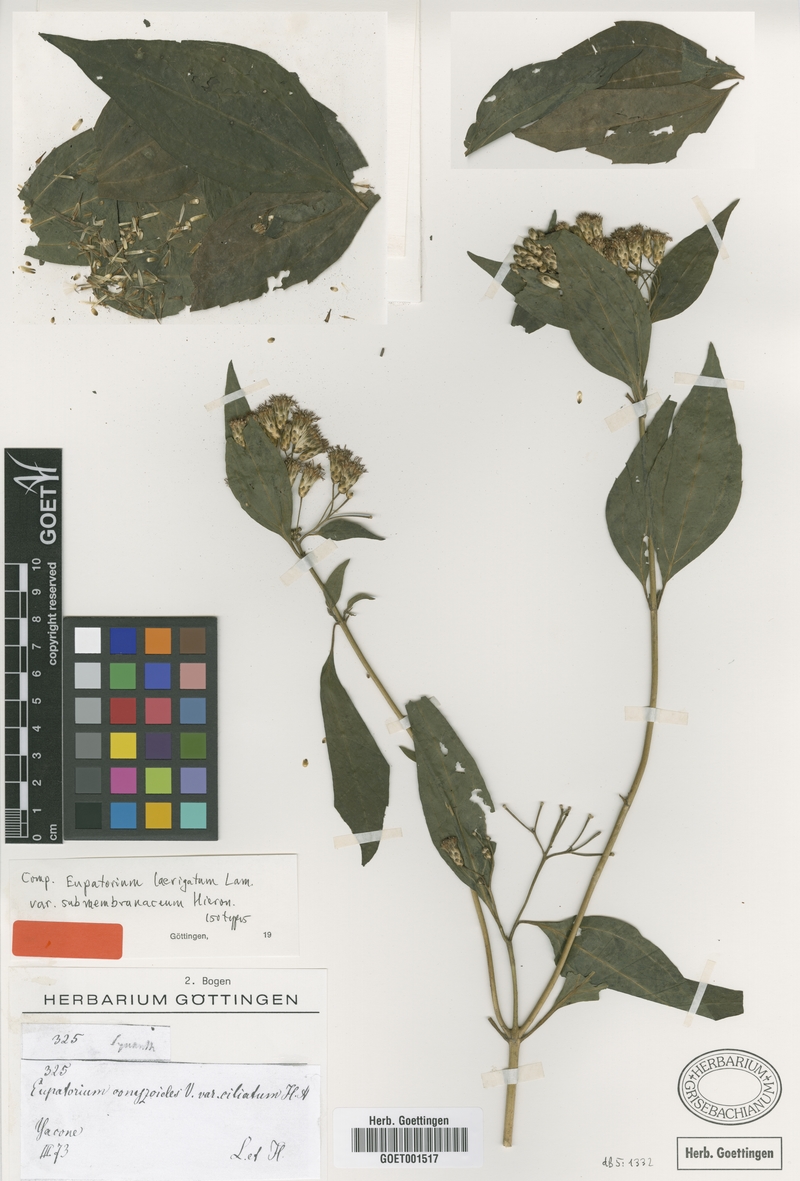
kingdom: Plantae
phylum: Tracheophyta
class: Magnoliopsida
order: Asterales
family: Asteraceae
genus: Chromolaena
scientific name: Chromolaena laevigata
